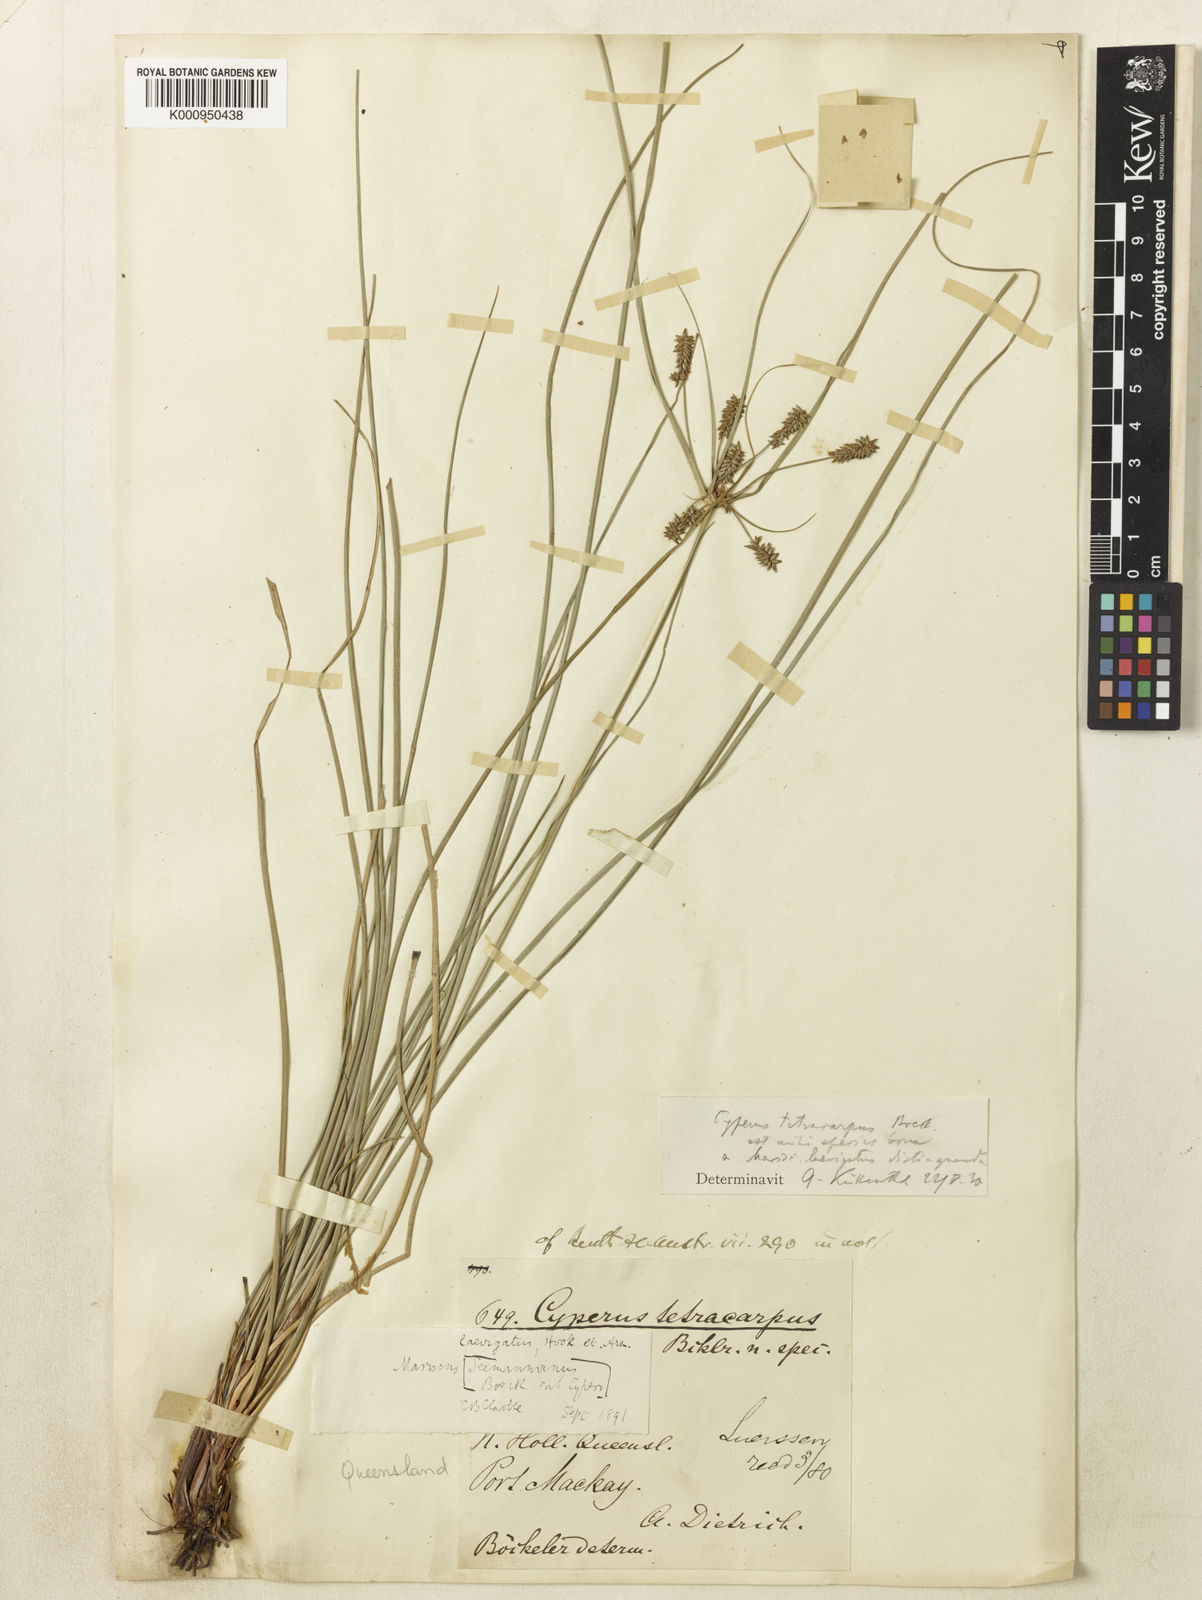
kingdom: Plantae
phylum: Tracheophyta
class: Liliopsida
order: Poales
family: Cyperaceae
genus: Cyperus
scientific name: Cyperus tetracarpus
